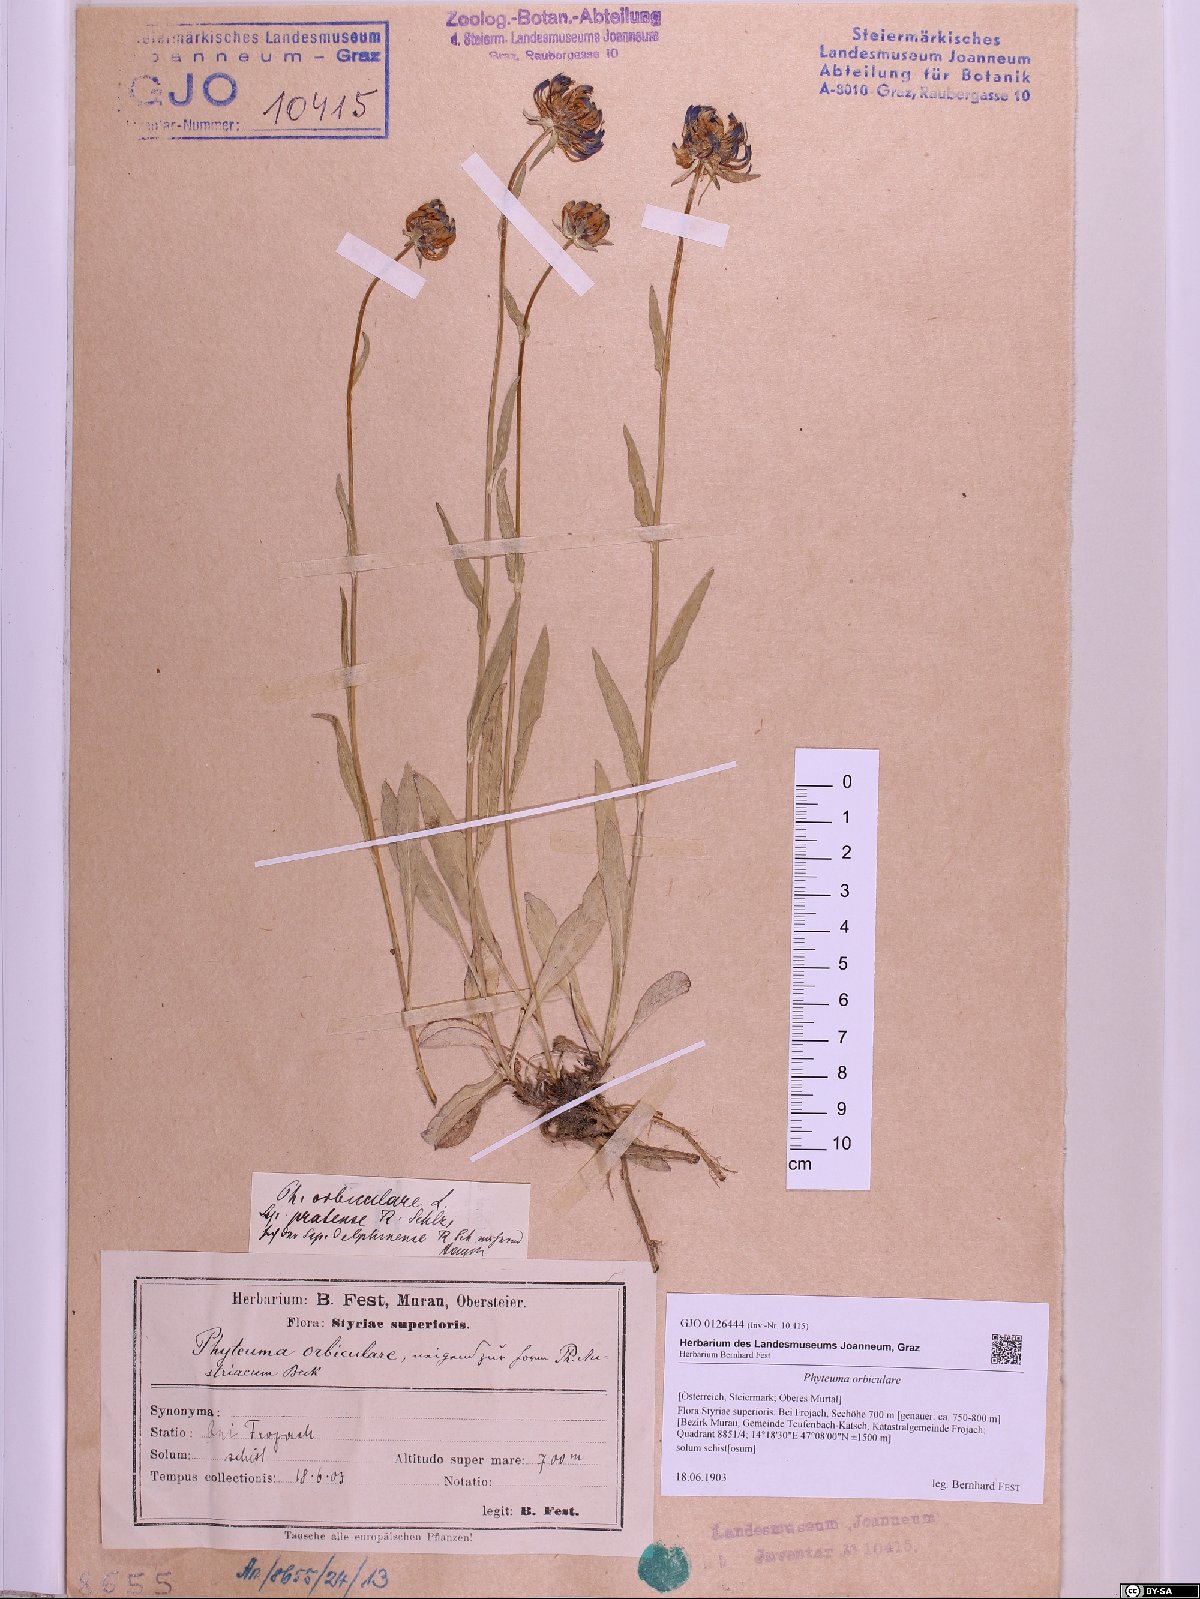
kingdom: Plantae
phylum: Tracheophyta
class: Magnoliopsida
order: Asterales
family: Campanulaceae
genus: Phyteuma
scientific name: Phyteuma orbiculare
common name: Round-headed rampion
